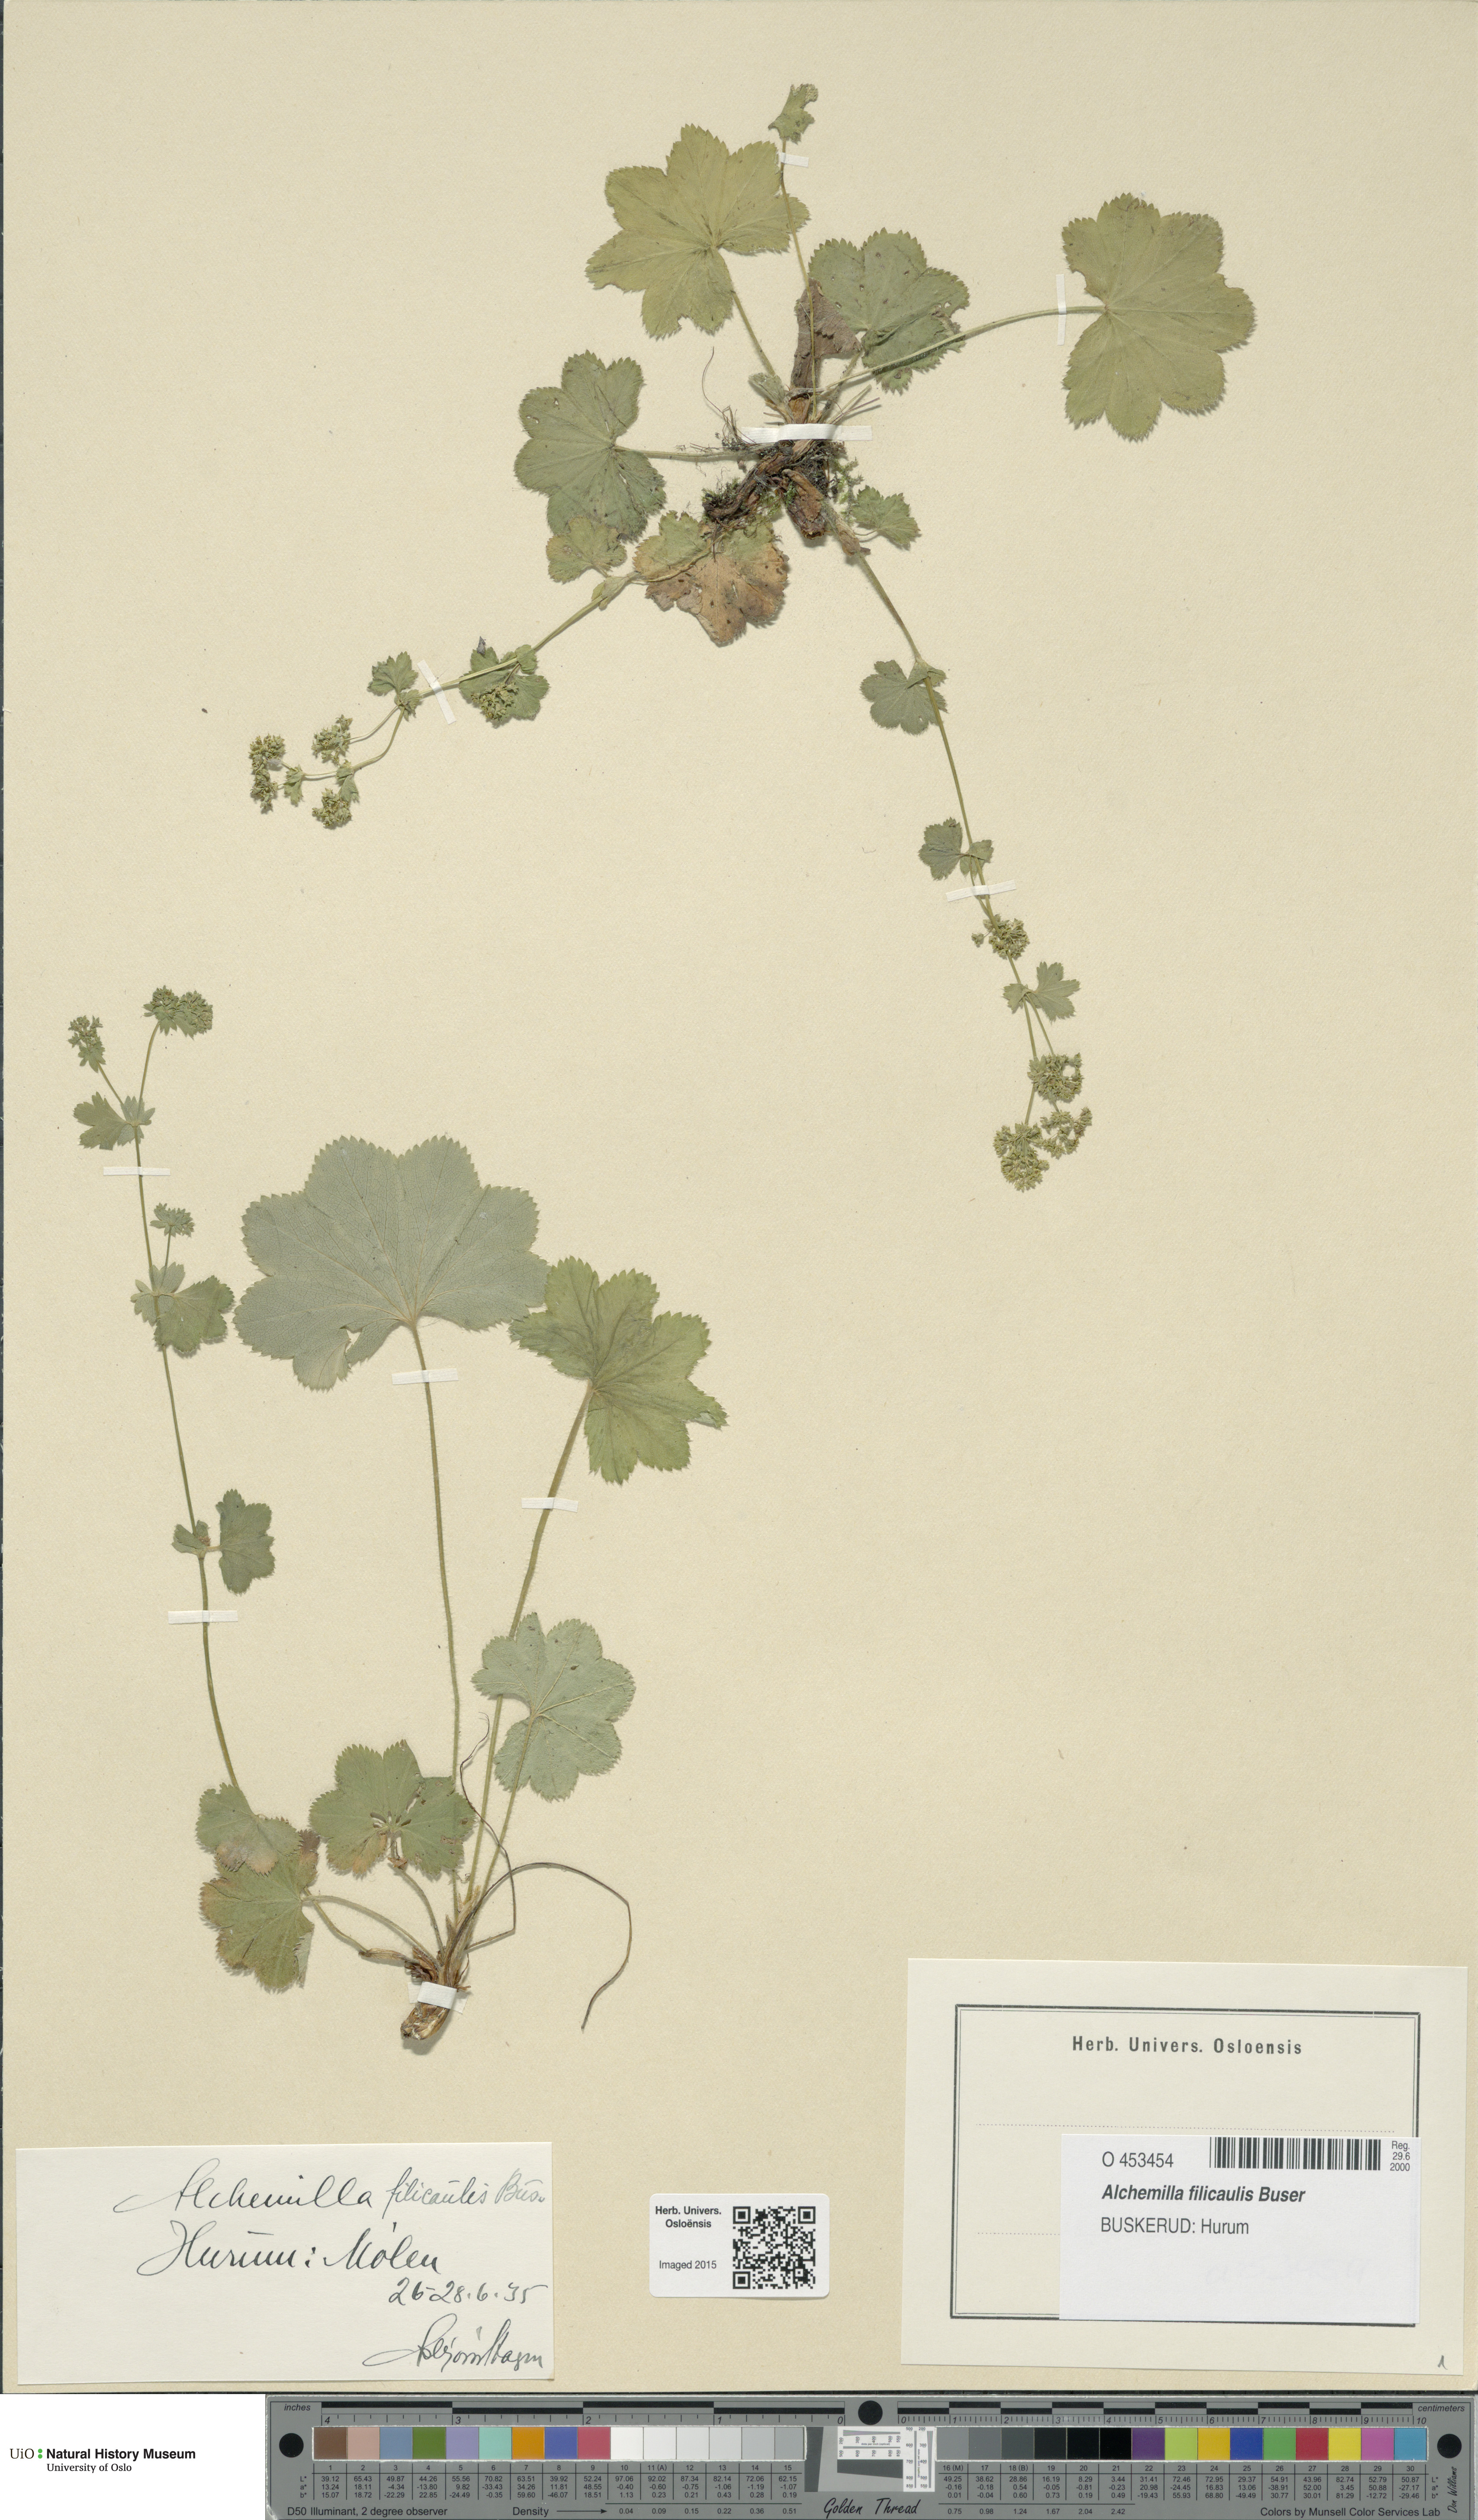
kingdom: Plantae
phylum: Tracheophyta
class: Magnoliopsida
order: Rosales
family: Rosaceae
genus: Alchemilla
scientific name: Alchemilla filicaulis
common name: Hairy lady's-mantle
